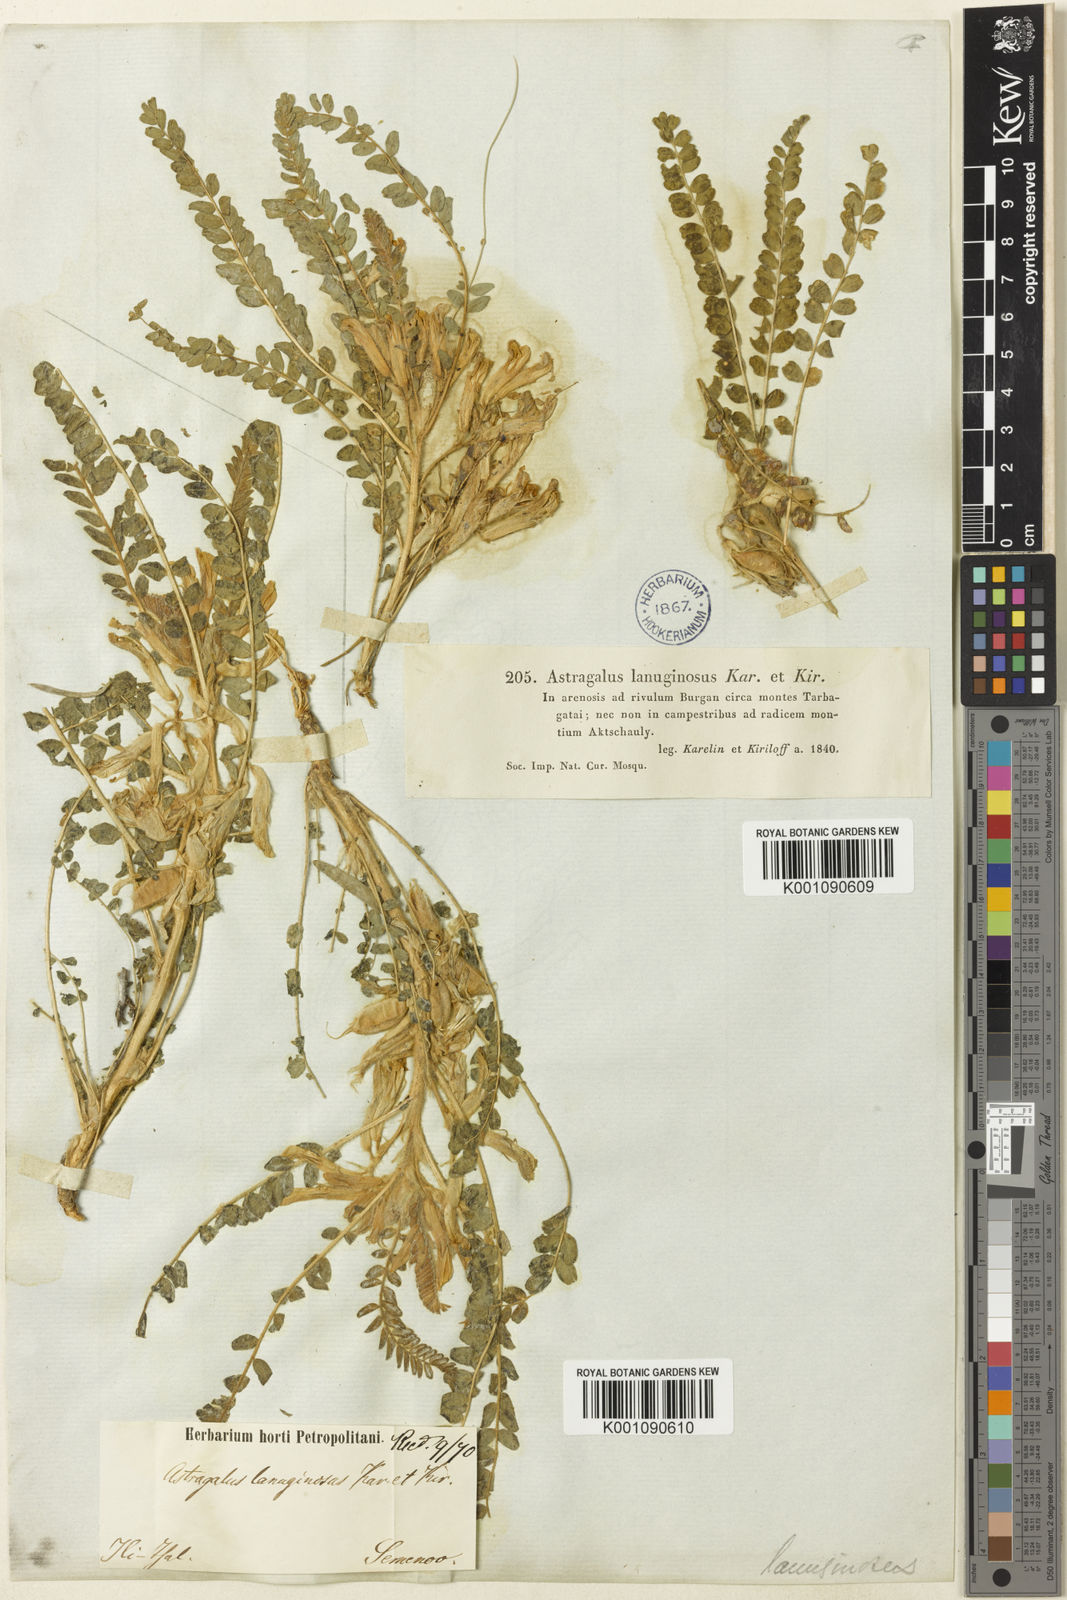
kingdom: Plantae
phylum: Tracheophyta
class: Magnoliopsida
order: Fabales
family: Fabaceae
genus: Astragalus
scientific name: Astragalus
